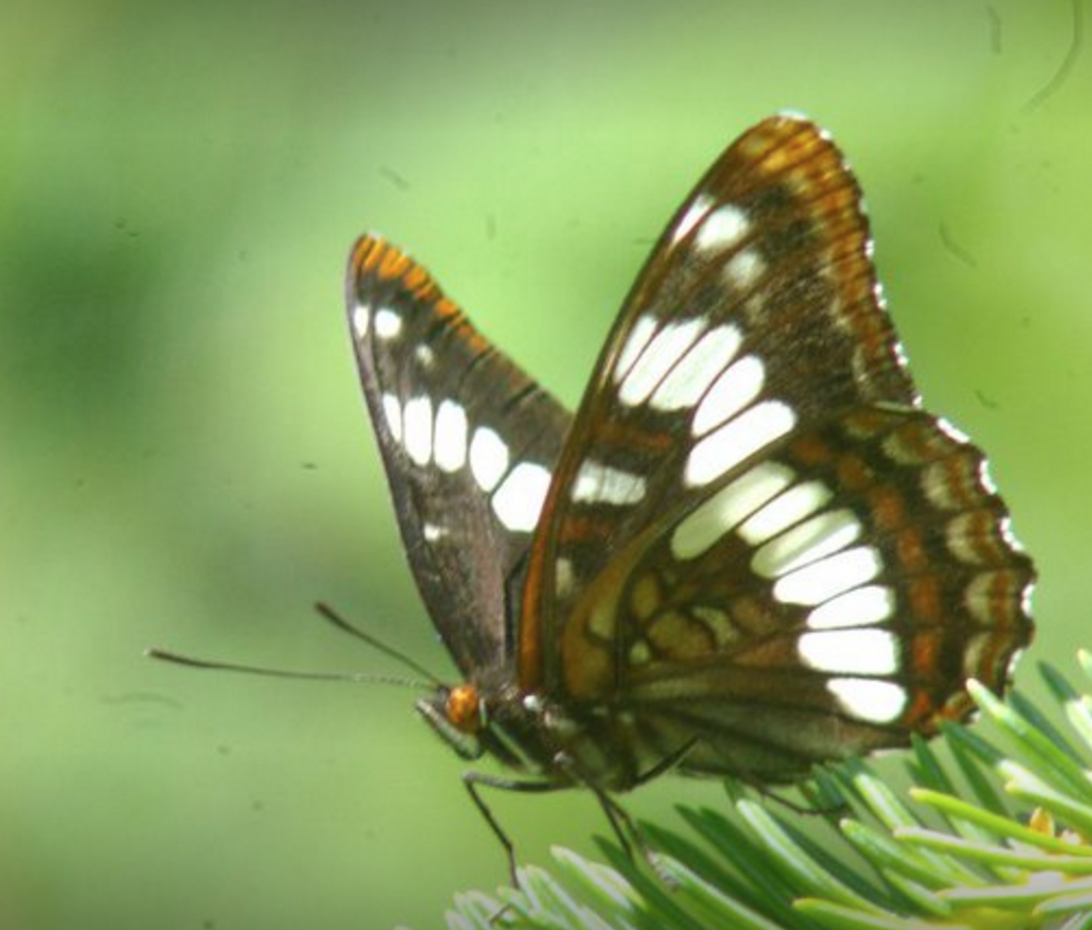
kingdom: Animalia
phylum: Arthropoda
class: Insecta
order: Lepidoptera
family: Nymphalidae
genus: Limenitis
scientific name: Limenitis lorquini
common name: Lorquin's Admiral
